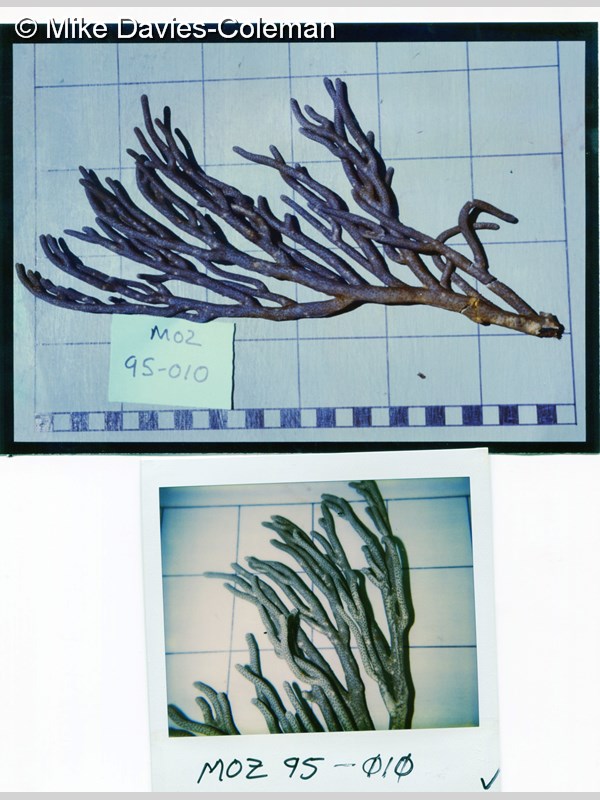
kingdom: Animalia
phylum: Cnidaria
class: Anthozoa
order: Malacalcyonacea
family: Isididae
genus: Rumphella
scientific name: Rumphella
